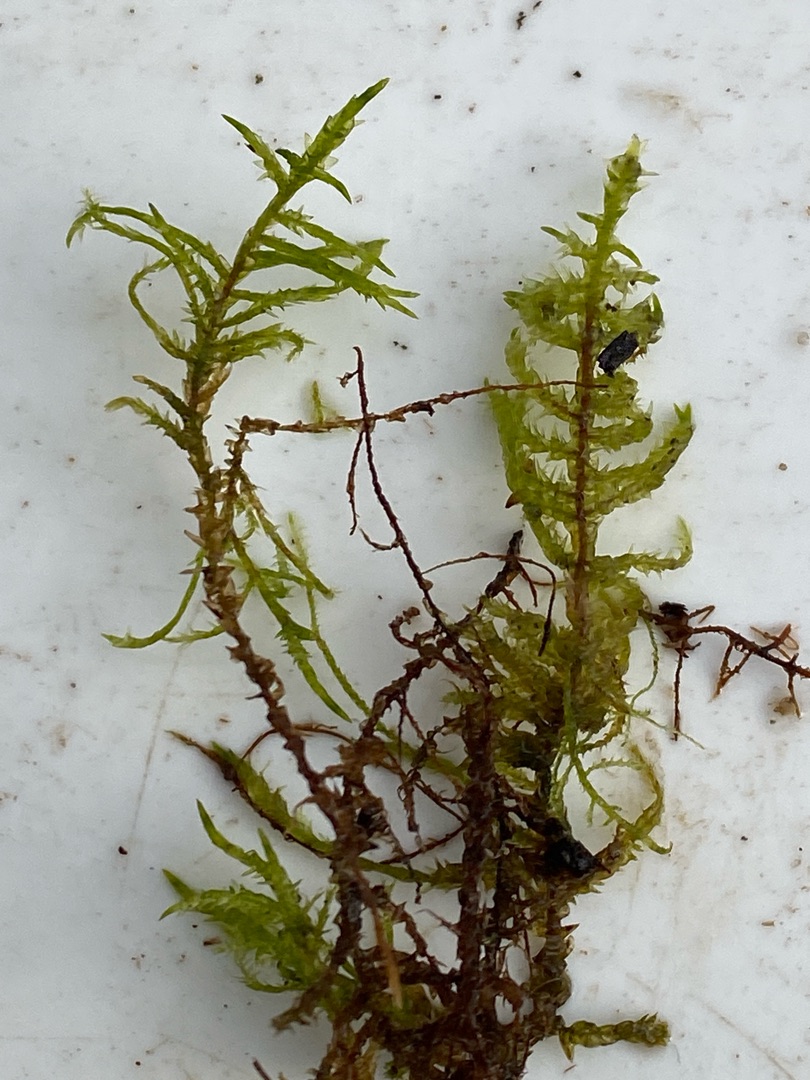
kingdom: Plantae
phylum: Bryophyta
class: Bryopsida
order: Hypnales
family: Pylaisiaceae
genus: Calliergonella
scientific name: Calliergonella cuspidata
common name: Spids spydmos
